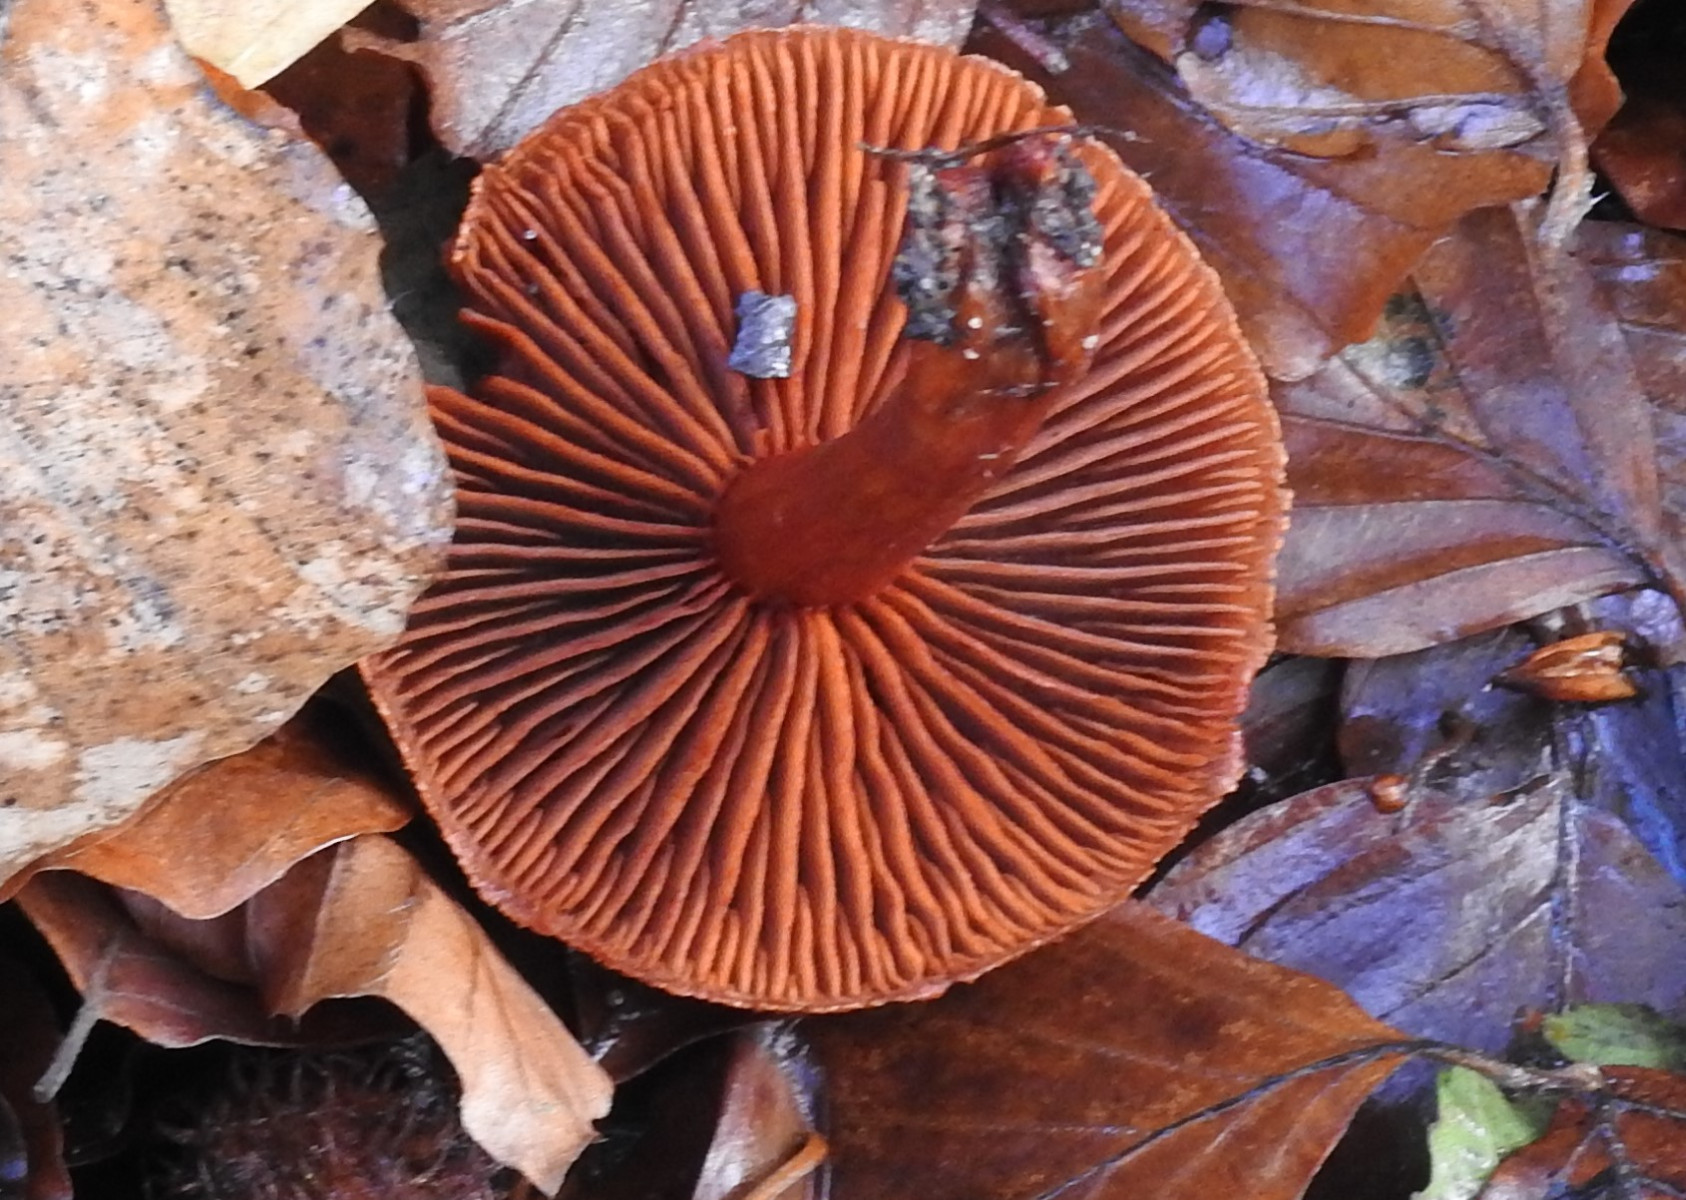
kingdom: Fungi
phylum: Basidiomycota
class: Agaricomycetes
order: Agaricales
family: Cortinariaceae
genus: Cortinarius
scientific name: Cortinarius cinnabarinus
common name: cinnober-slørhat
